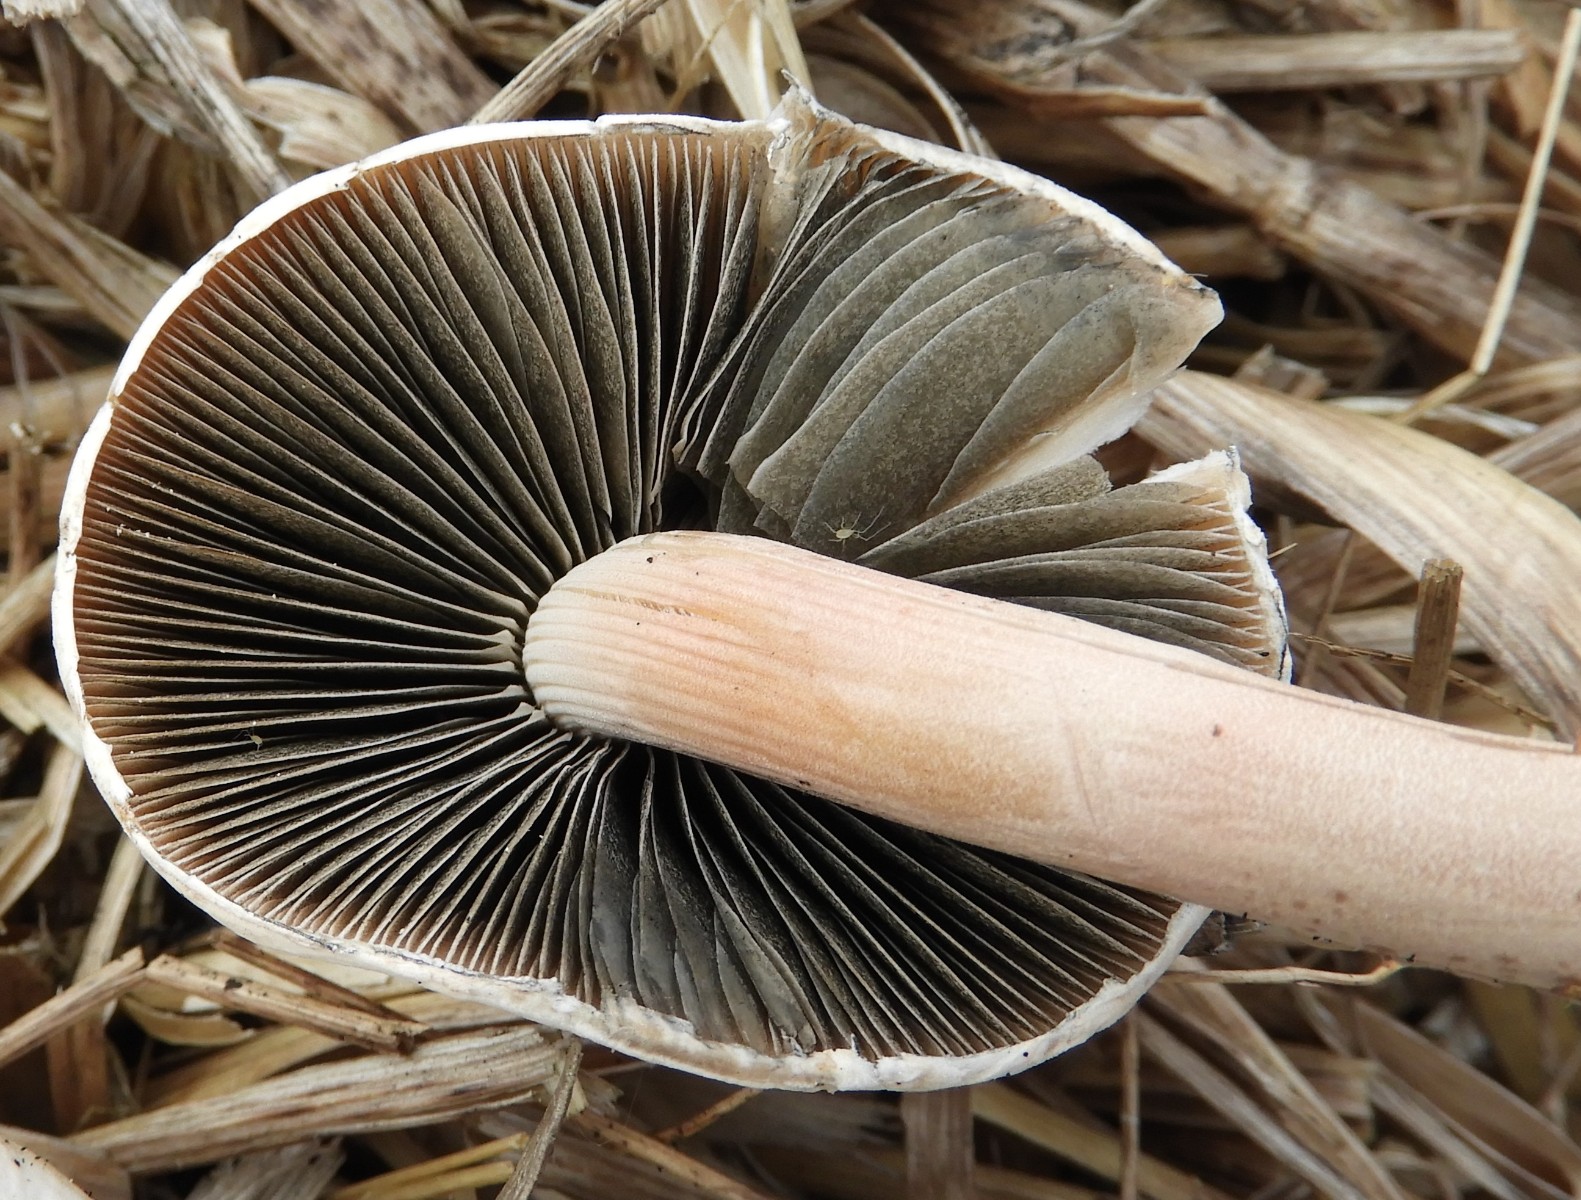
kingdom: Fungi
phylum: Basidiomycota
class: Agaricomycetes
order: Agaricales
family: Bolbitiaceae
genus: Panaeolus
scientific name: Panaeolus
